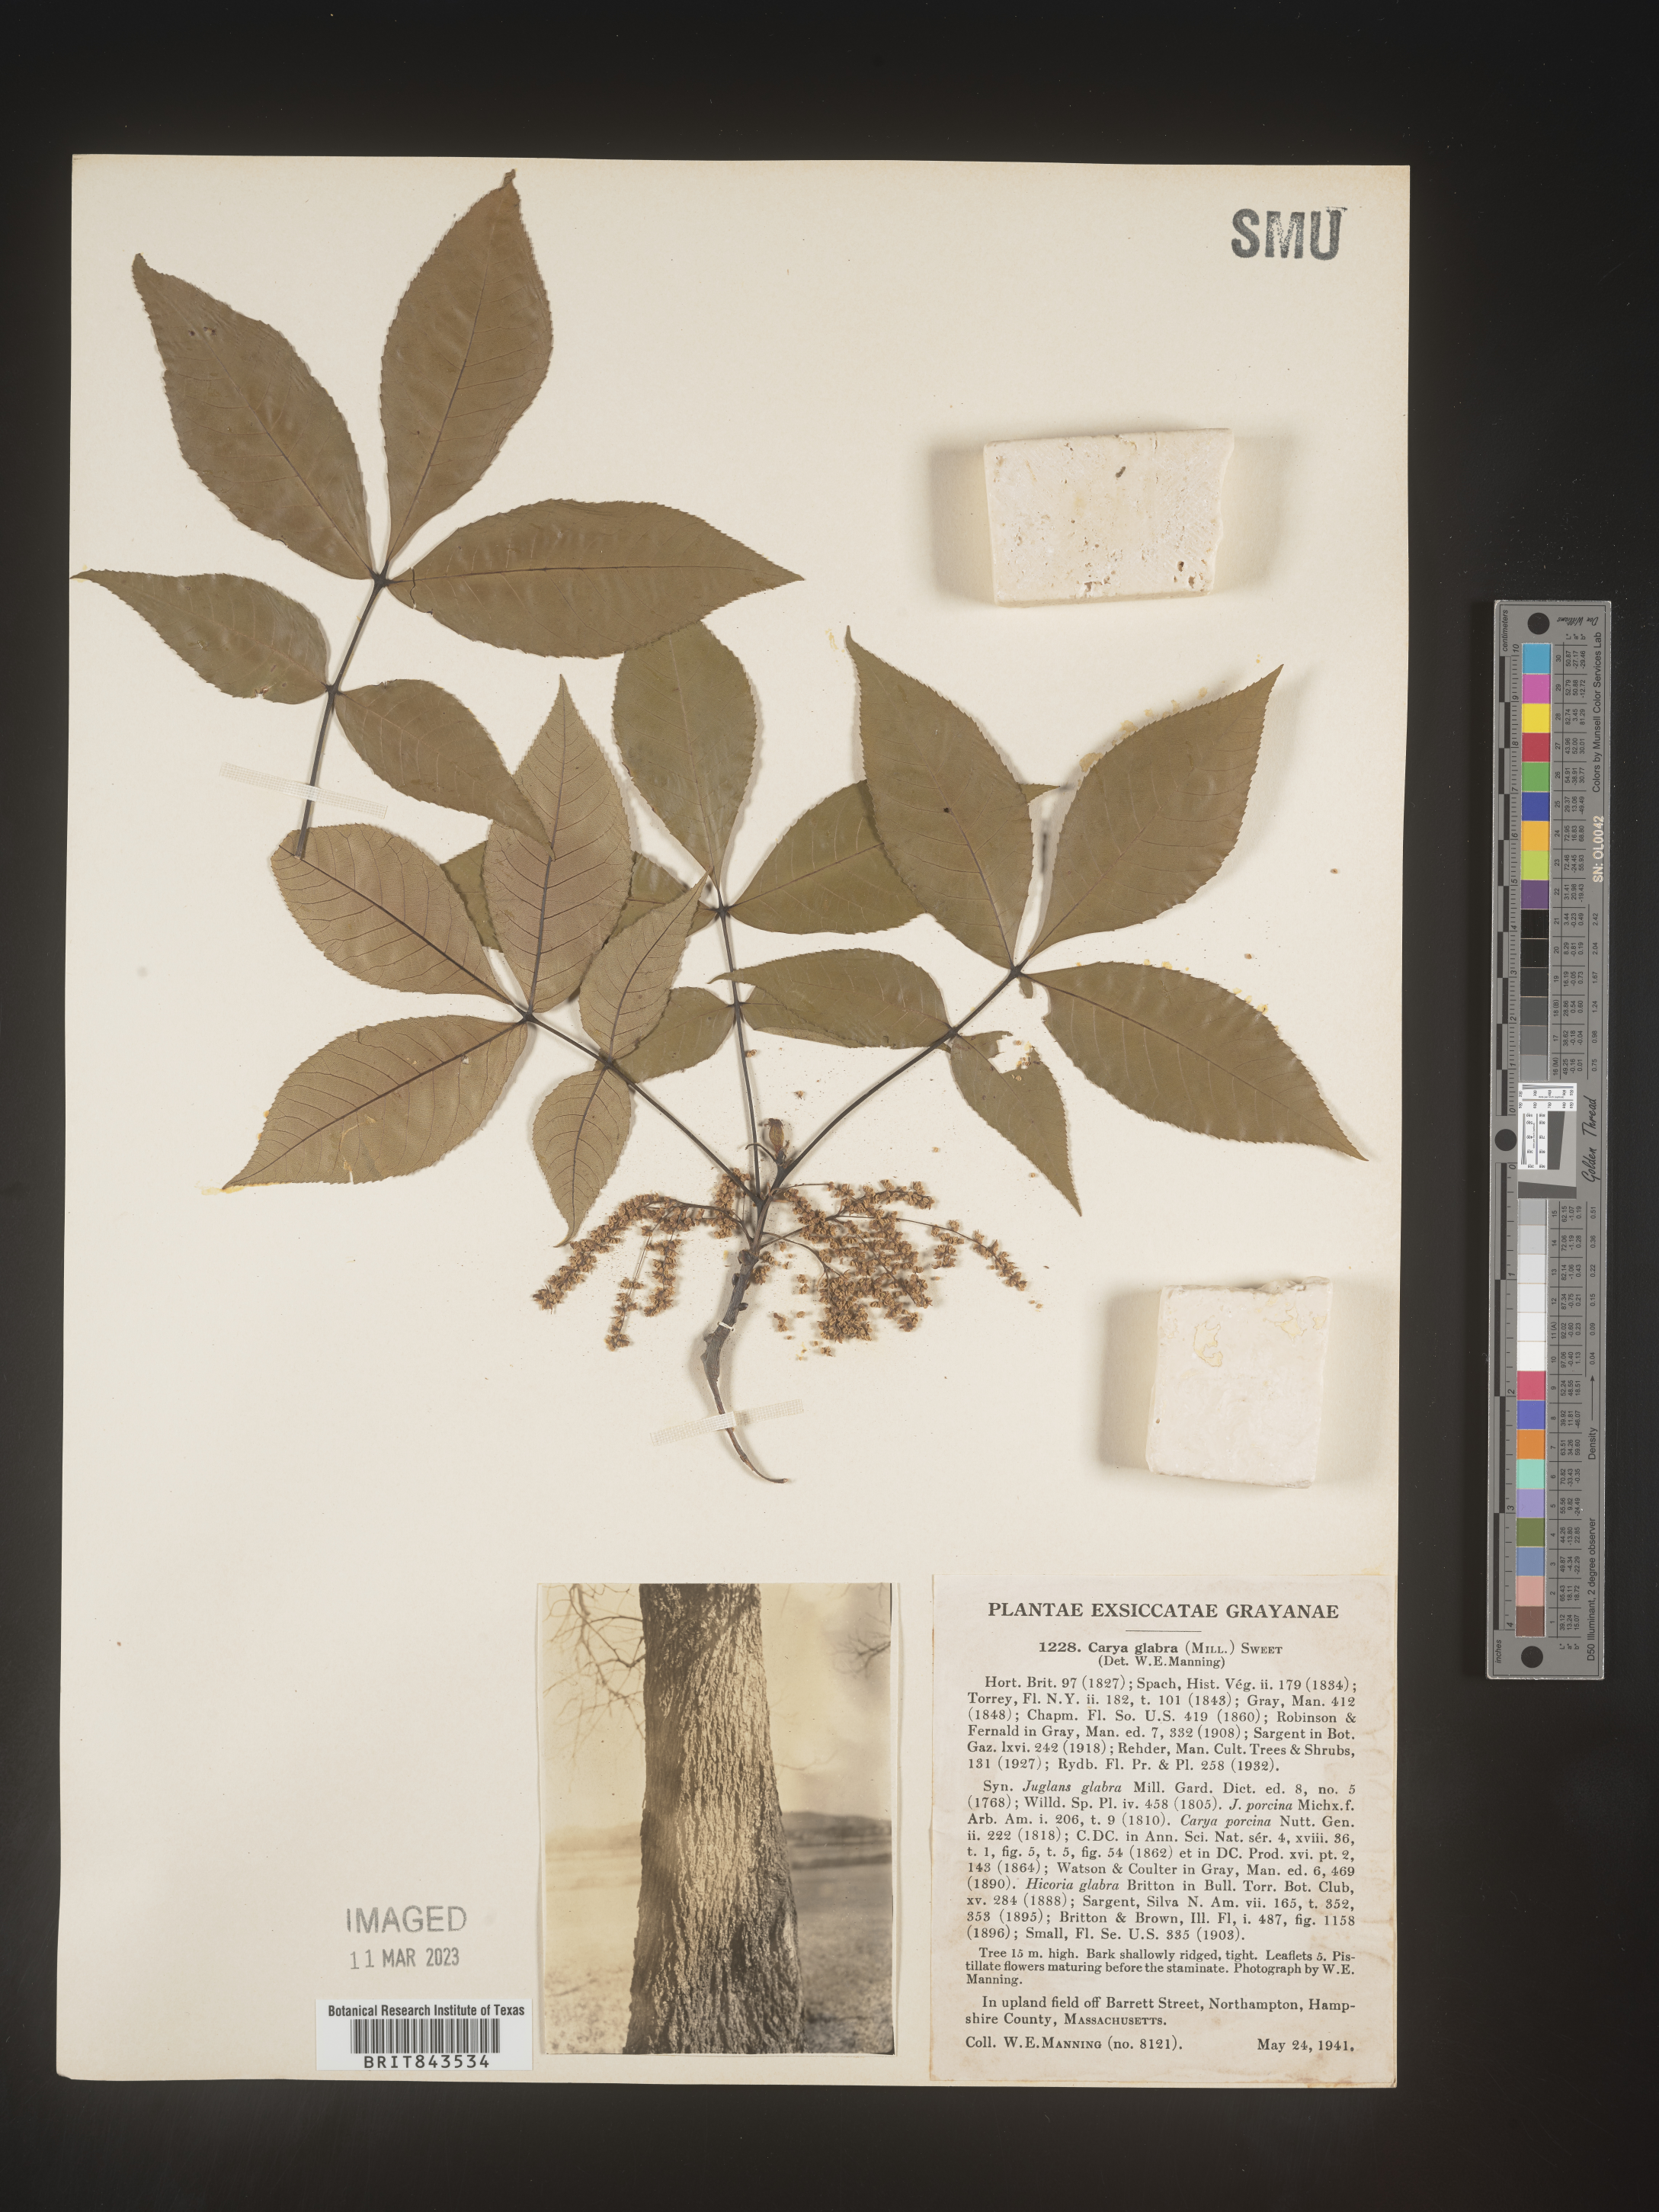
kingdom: Plantae
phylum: Tracheophyta
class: Magnoliopsida
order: Fagales
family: Juglandaceae
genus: Carya
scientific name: Carya glabra
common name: Pignut hickory
